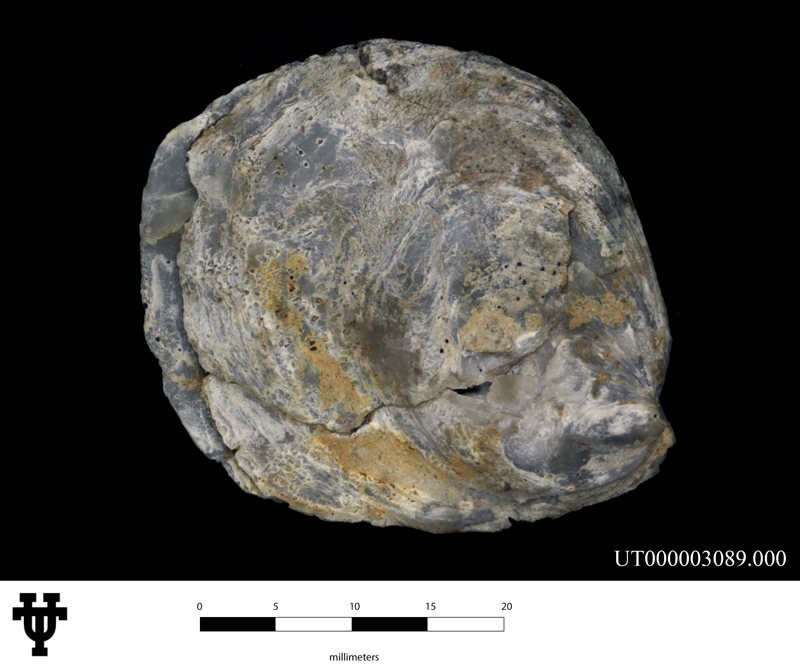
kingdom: Animalia
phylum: Mollusca
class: Bivalvia
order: Ostreida
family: Ostreidae
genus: Ostrea
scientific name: Ostrea
